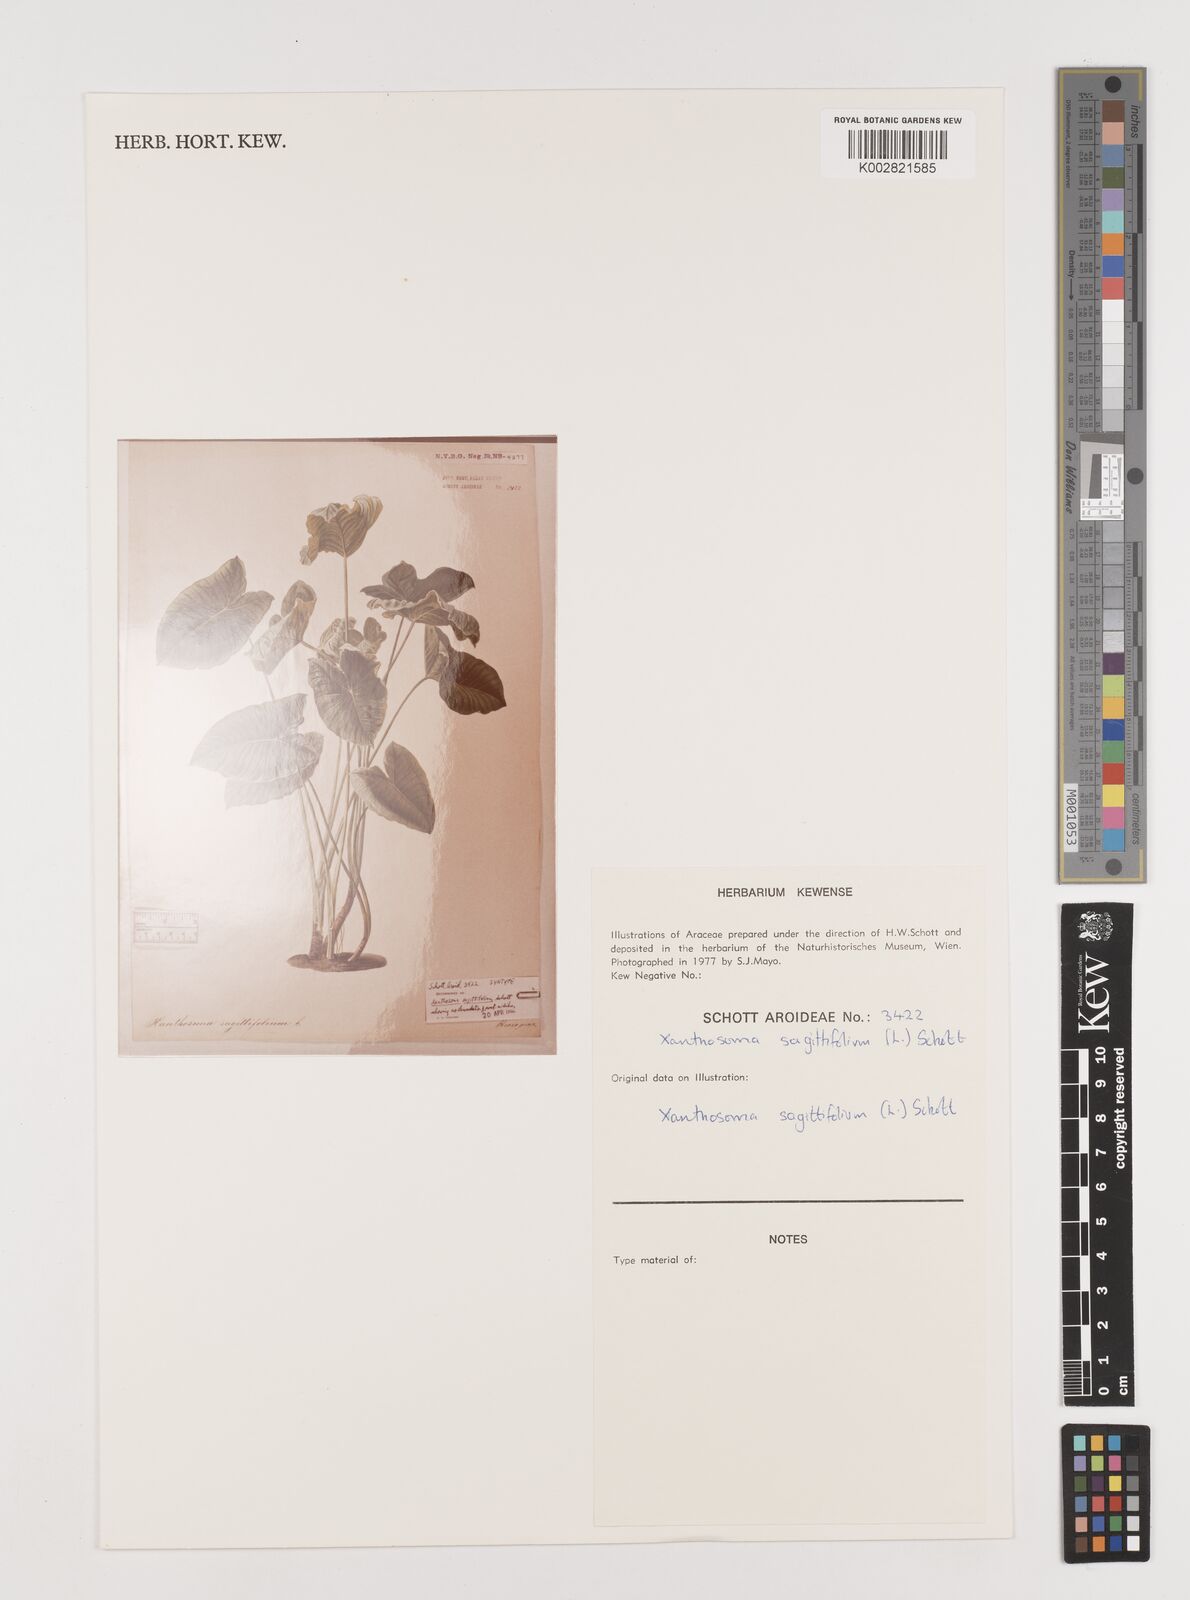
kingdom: Plantae
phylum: Tracheophyta
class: Liliopsida
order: Alismatales
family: Araceae
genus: Xanthosoma
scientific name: Xanthosoma sagittifolium
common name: Arrowleaf elephant's ear
